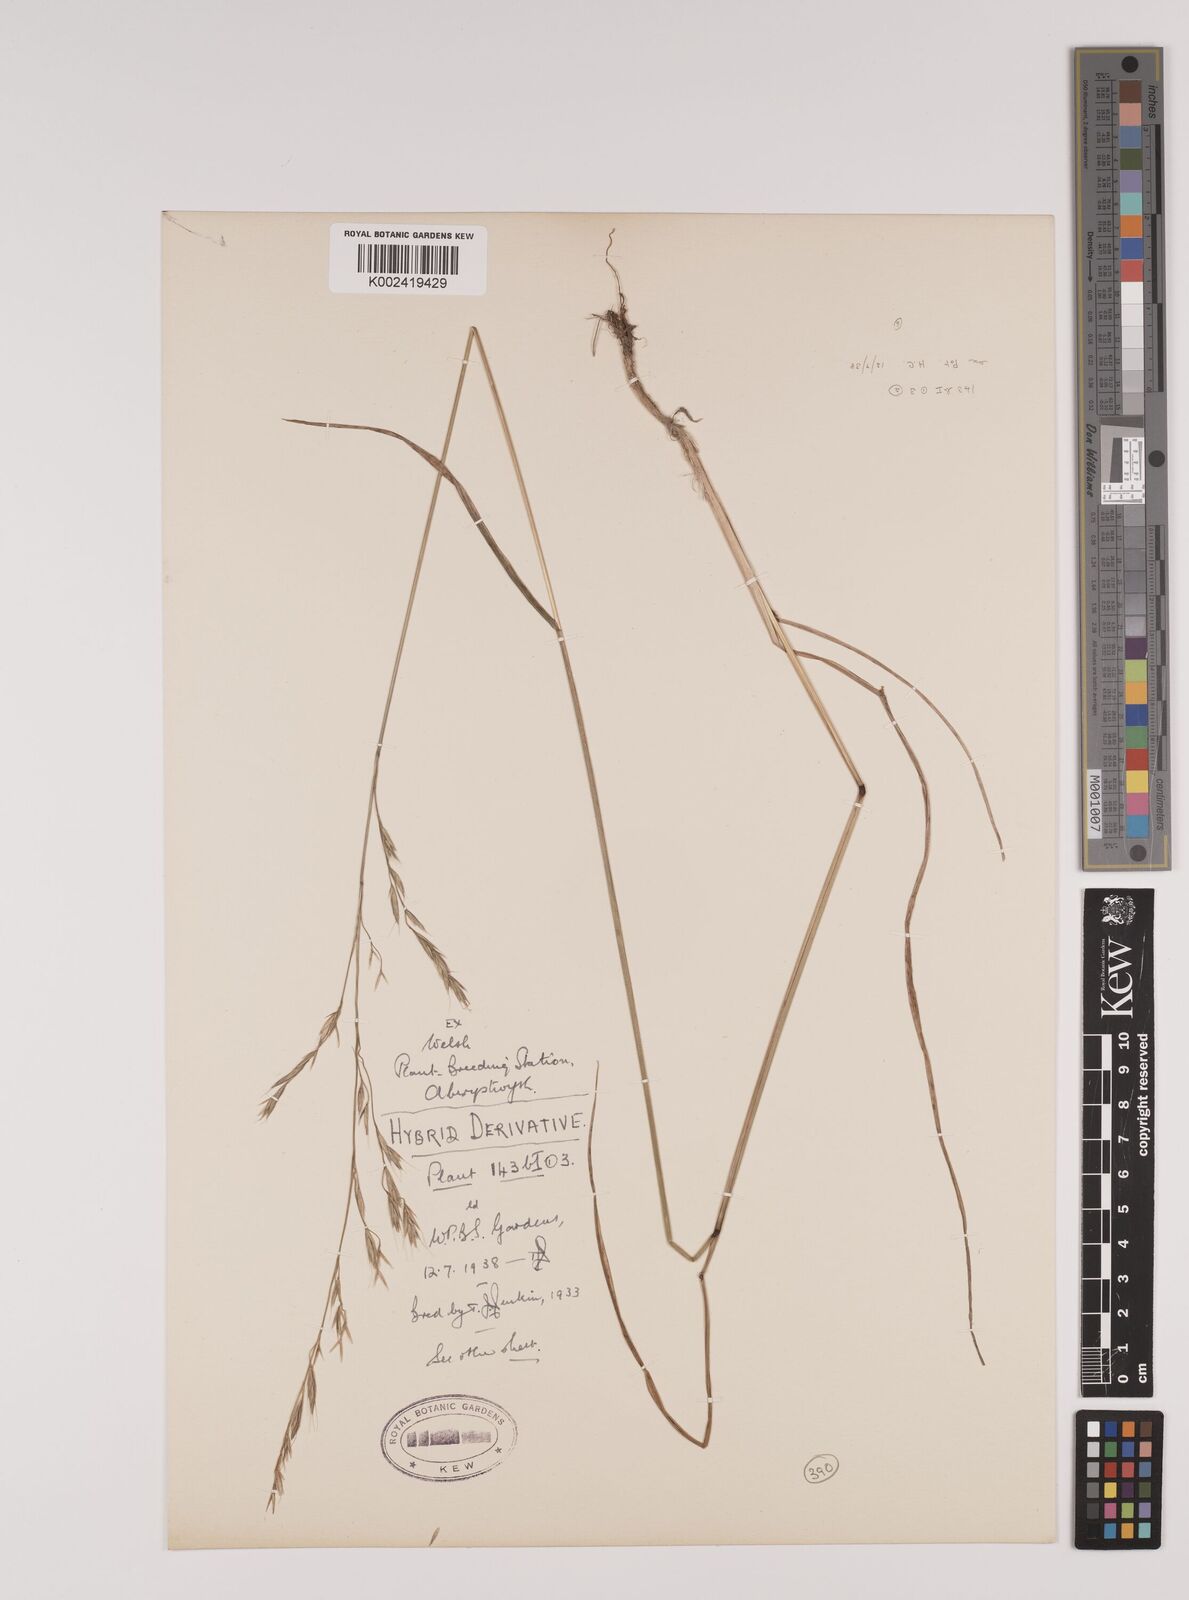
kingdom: Plantae
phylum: Tracheophyta
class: Liliopsida
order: Poales
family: Poaceae
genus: Lolium
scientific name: Lolium giganteum
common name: Giant fescue
